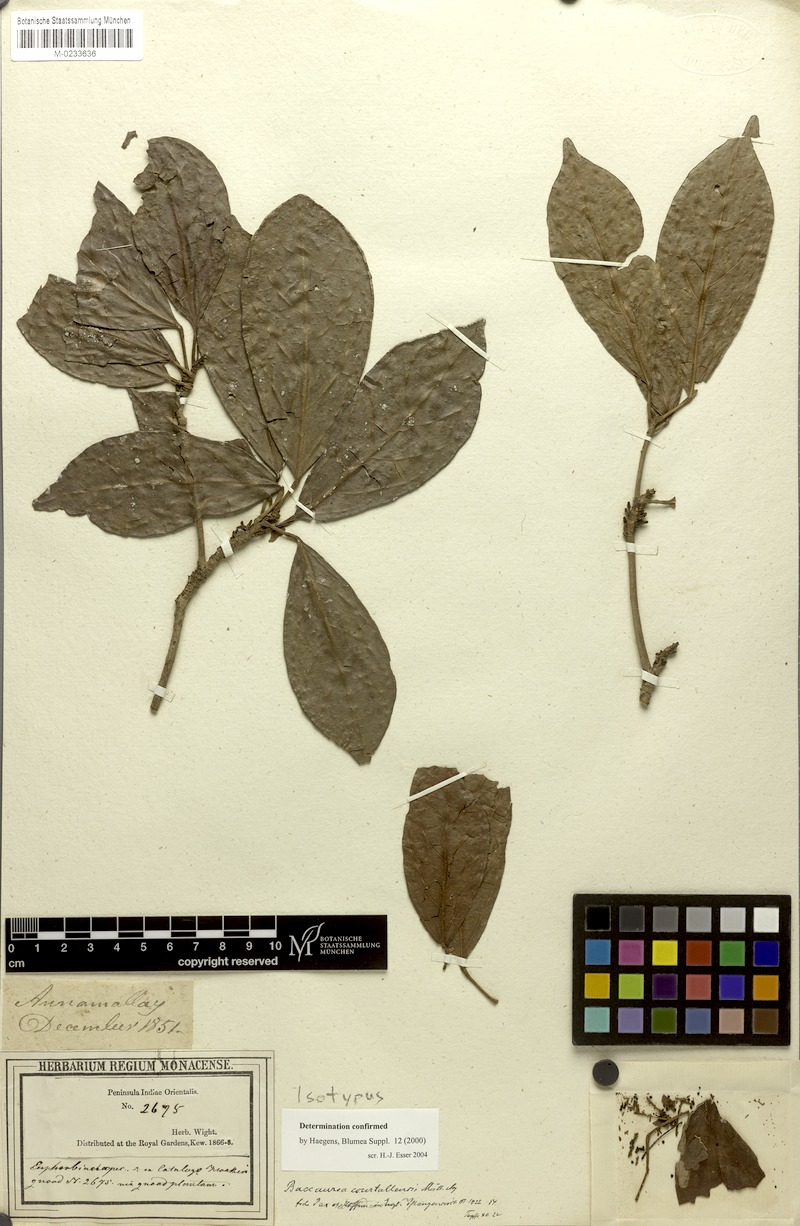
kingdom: Plantae
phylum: Tracheophyta
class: Magnoliopsida
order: Malpighiales
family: Phyllanthaceae
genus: Baccaurea
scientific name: Baccaurea courtallensis
